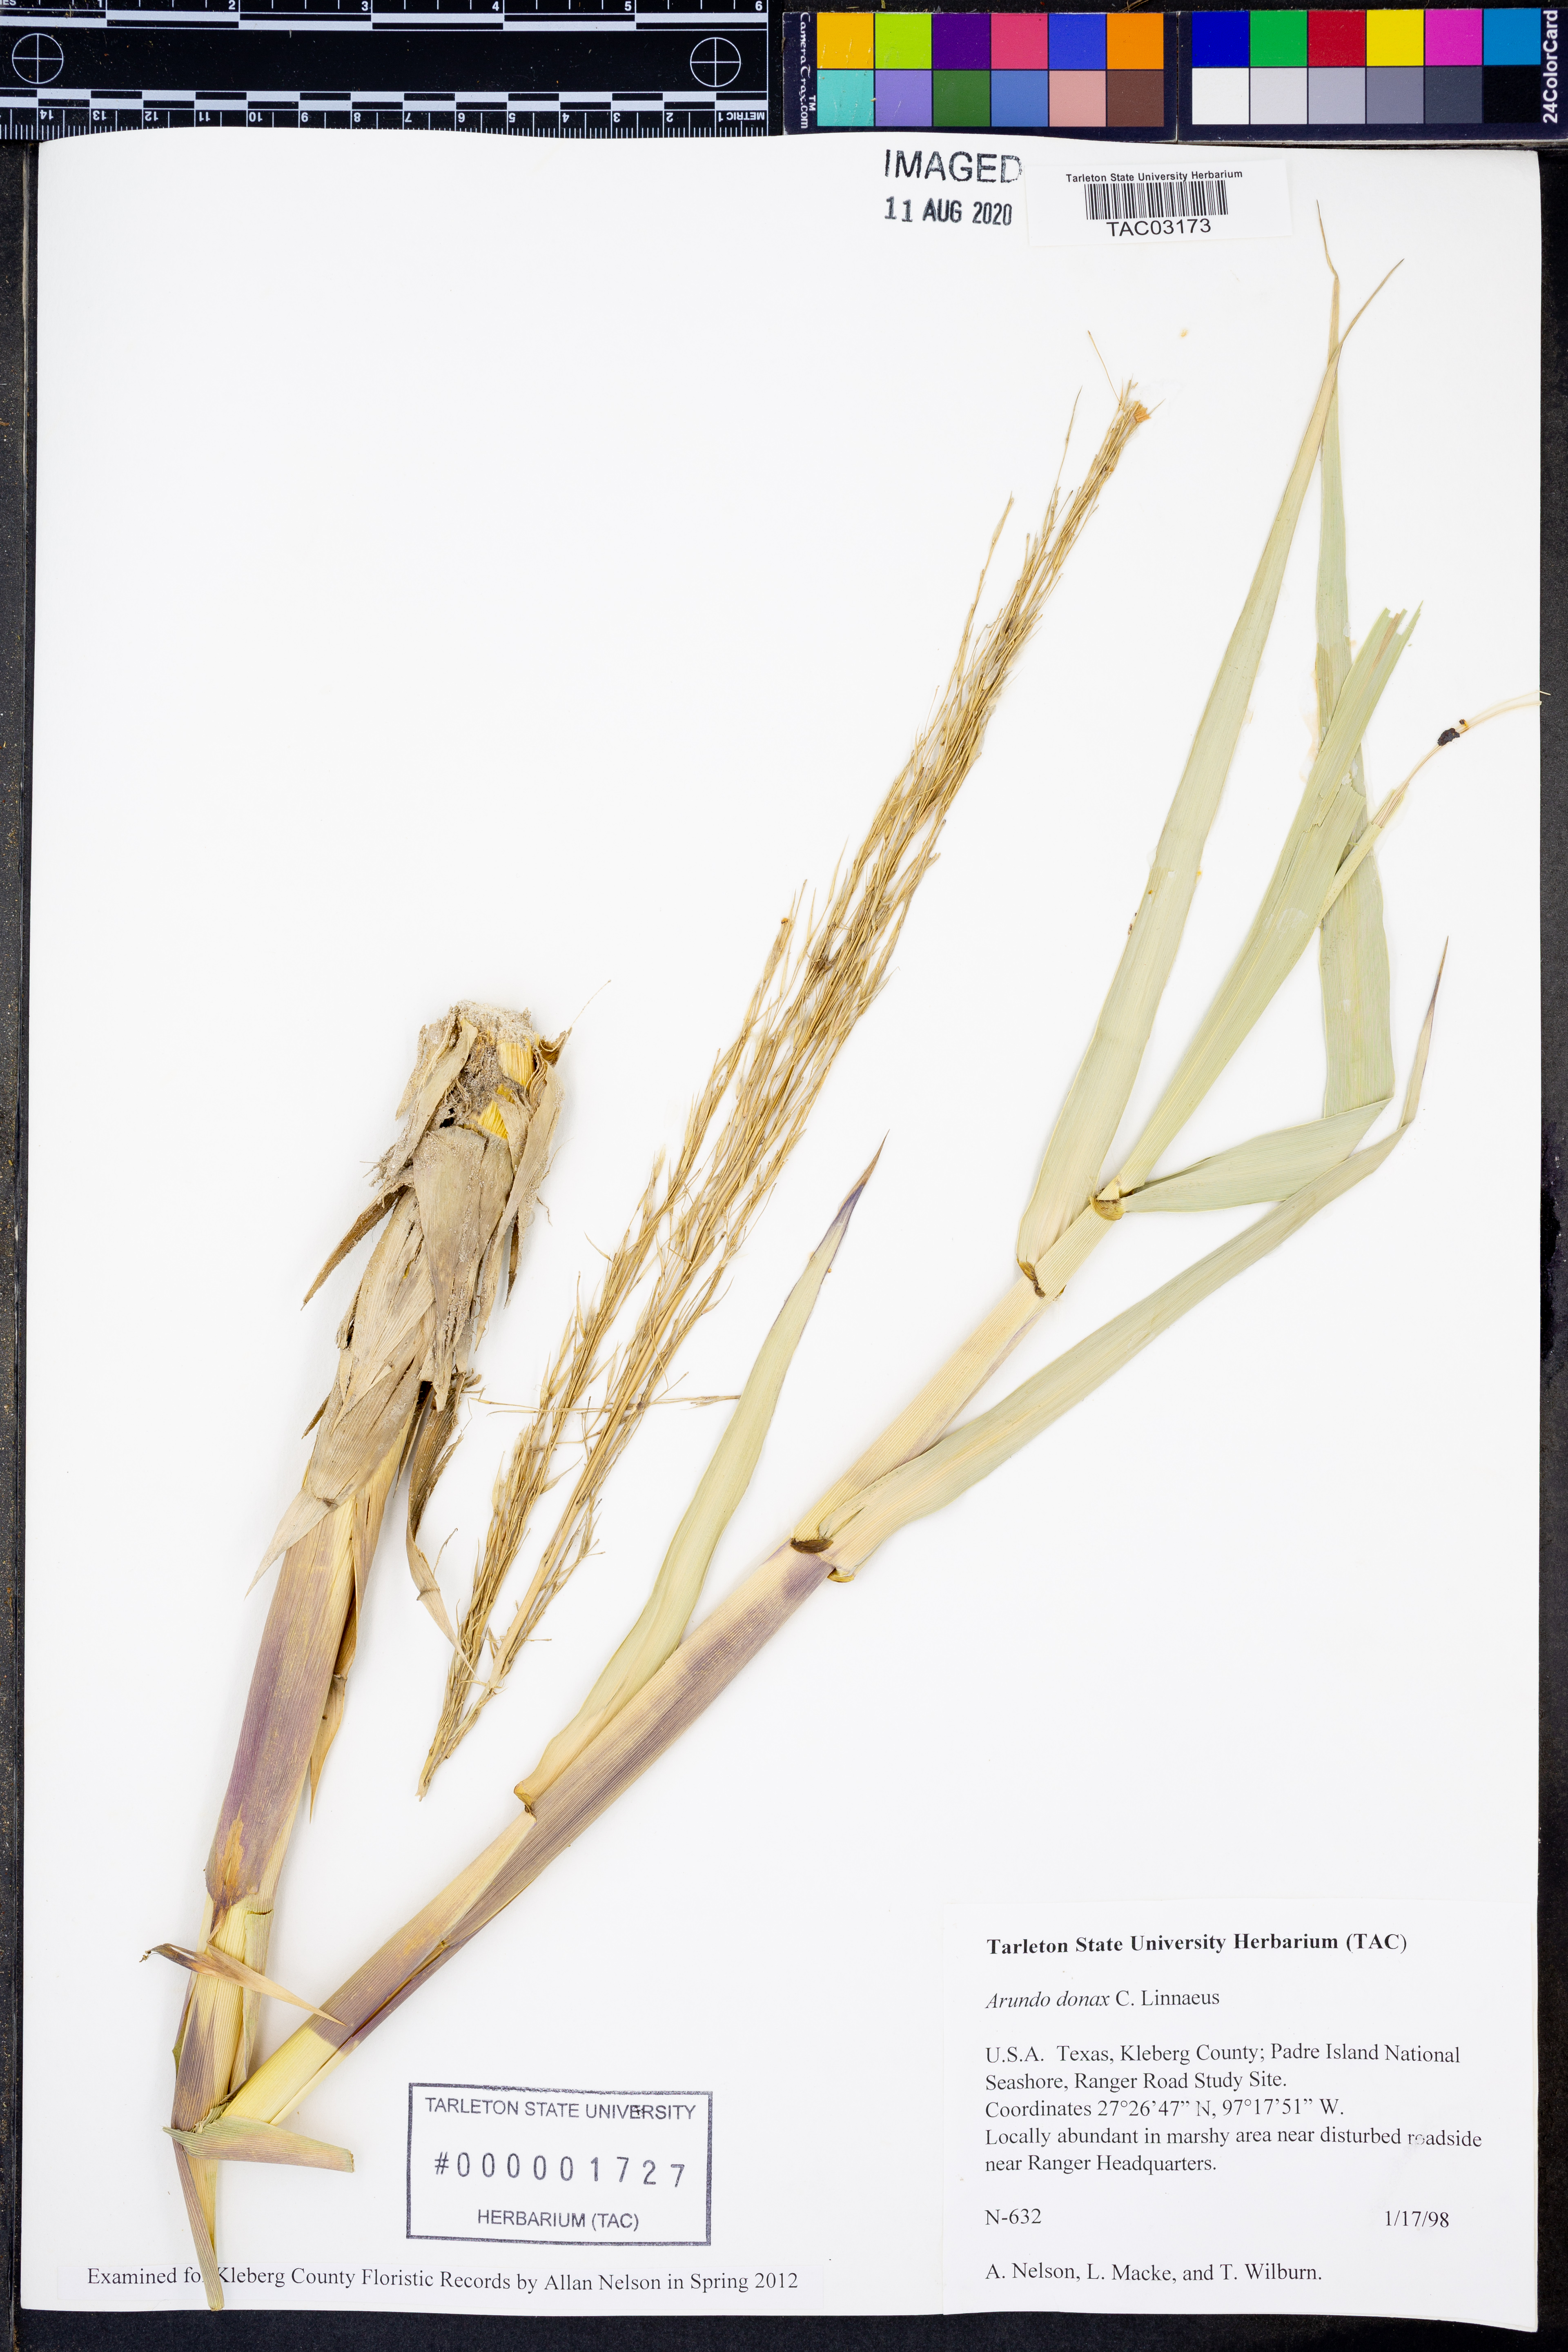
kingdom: Plantae
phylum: Tracheophyta
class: Liliopsida
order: Poales
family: Poaceae
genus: Arundo
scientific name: Arundo donax
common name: Giant reed
